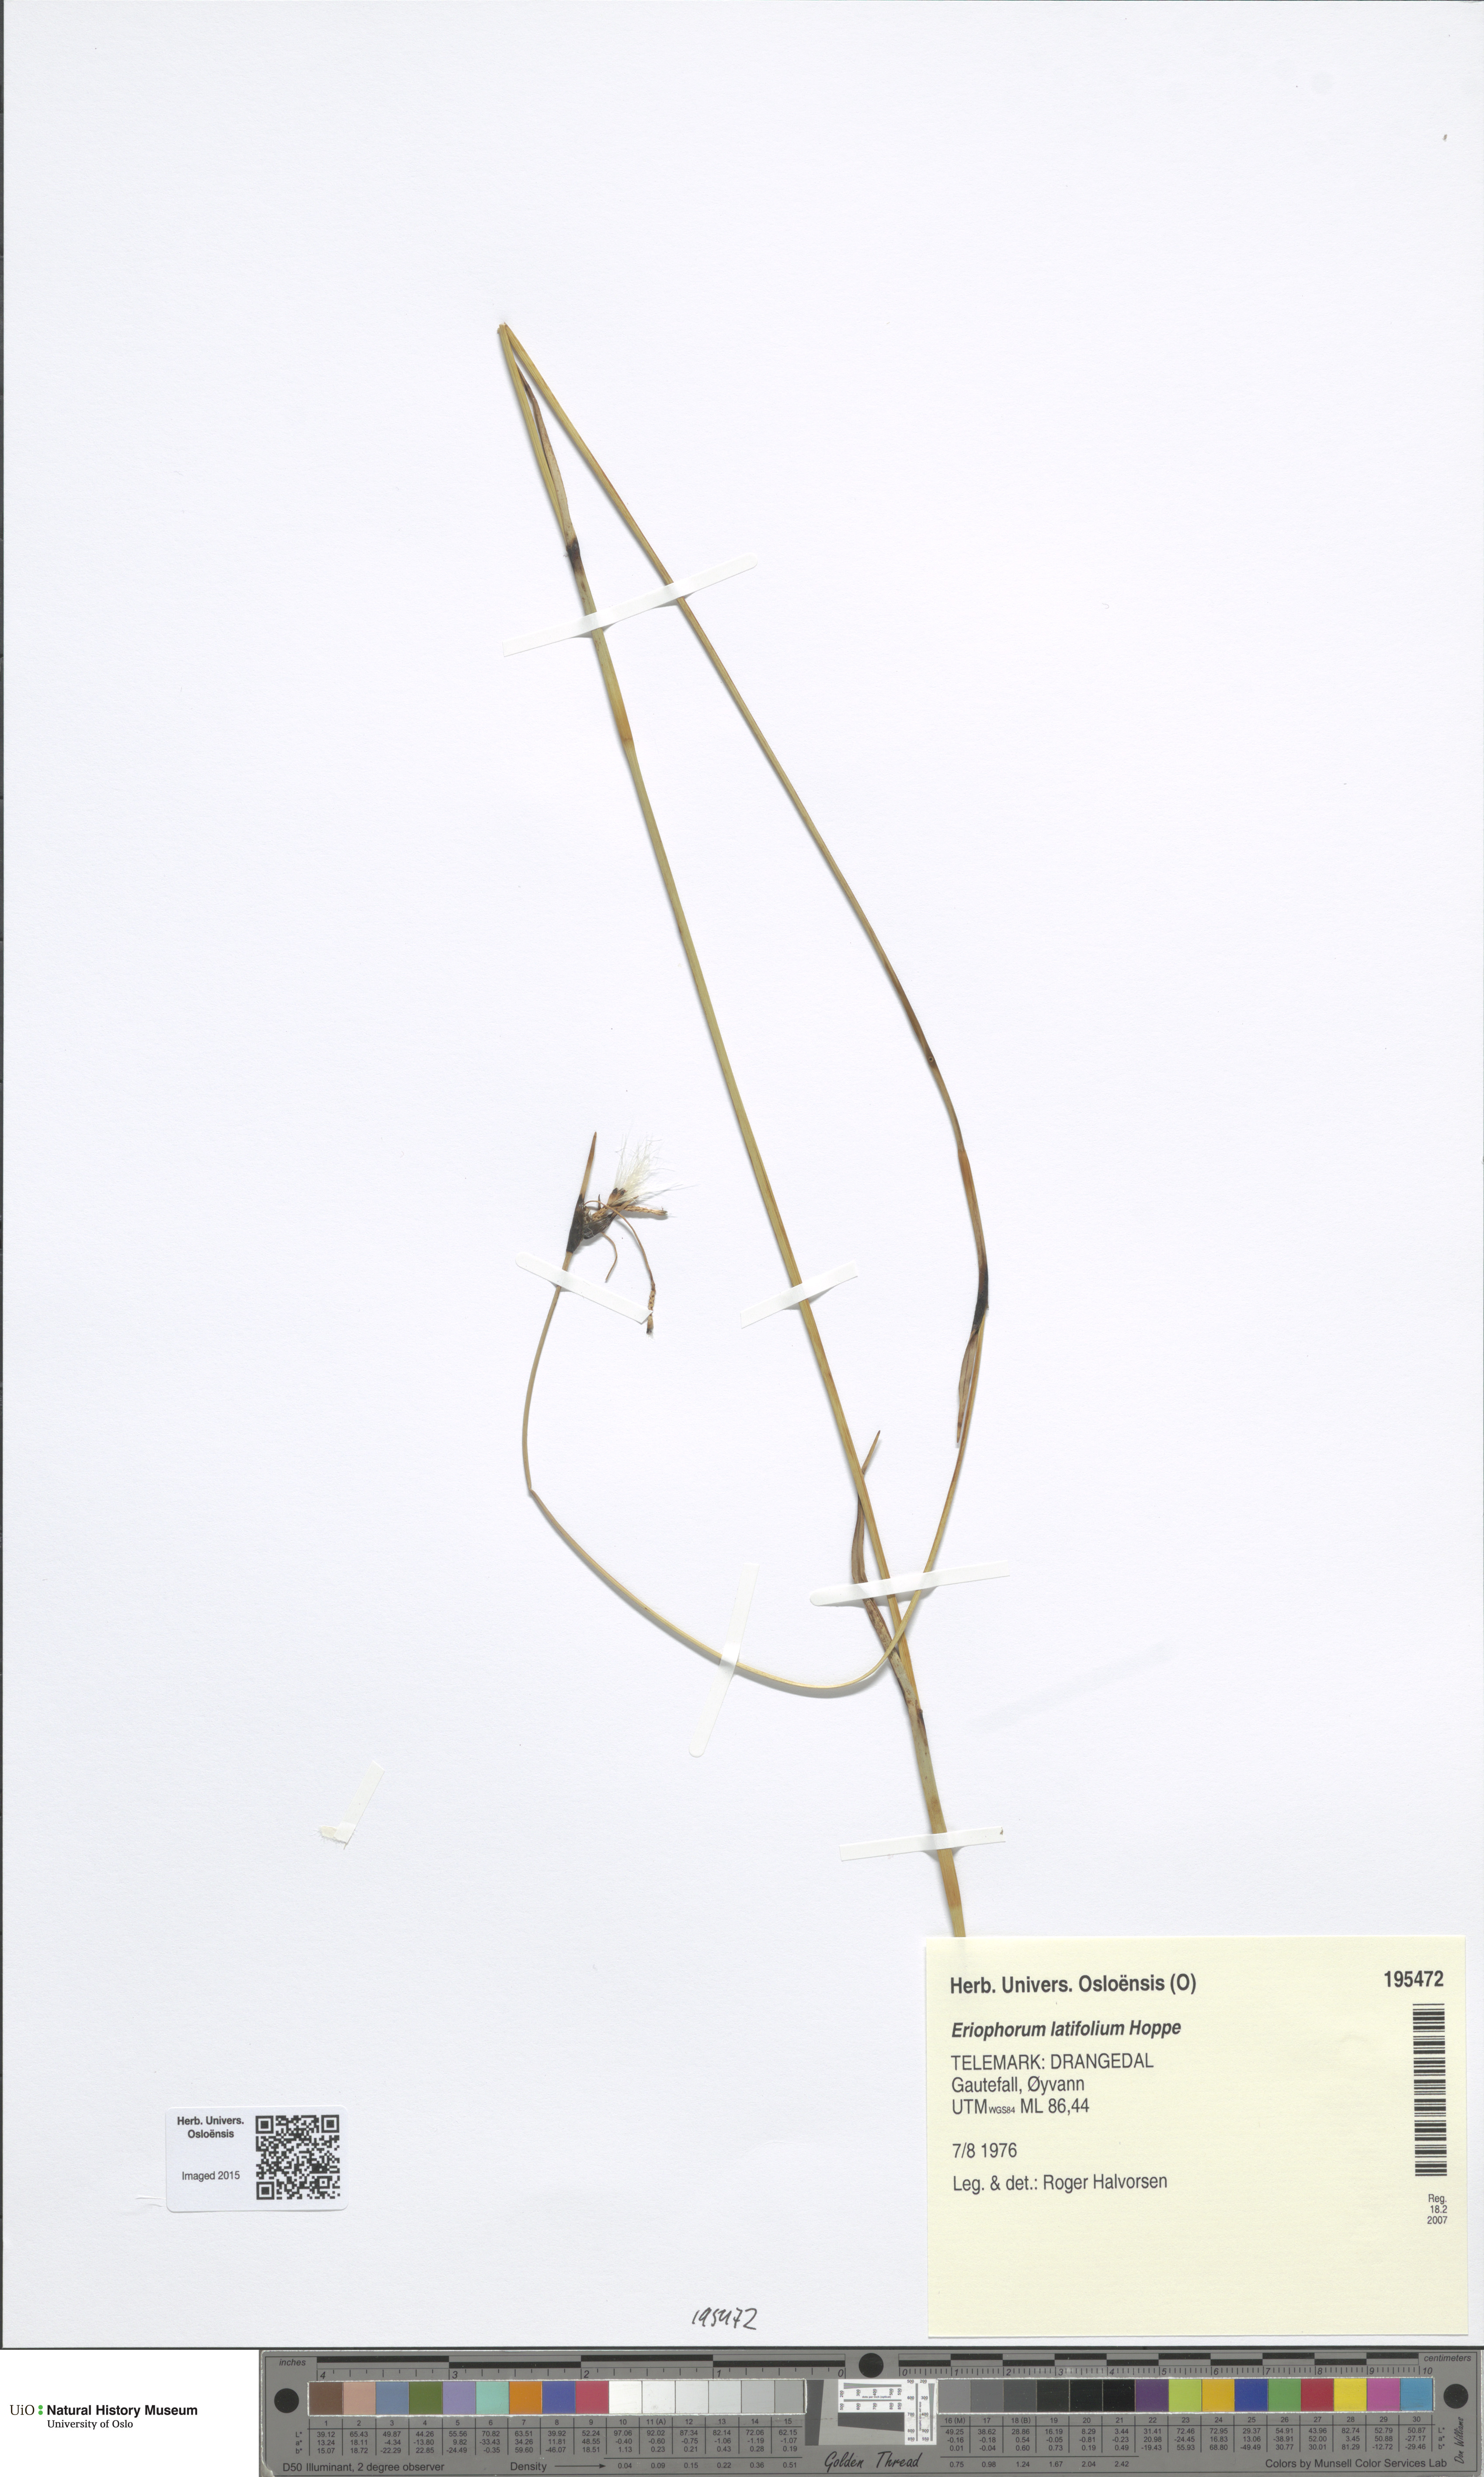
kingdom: Plantae
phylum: Tracheophyta
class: Liliopsida
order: Poales
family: Cyperaceae
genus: Eriophorum
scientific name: Eriophorum latifolium
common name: Broad-leaved cottongrass
